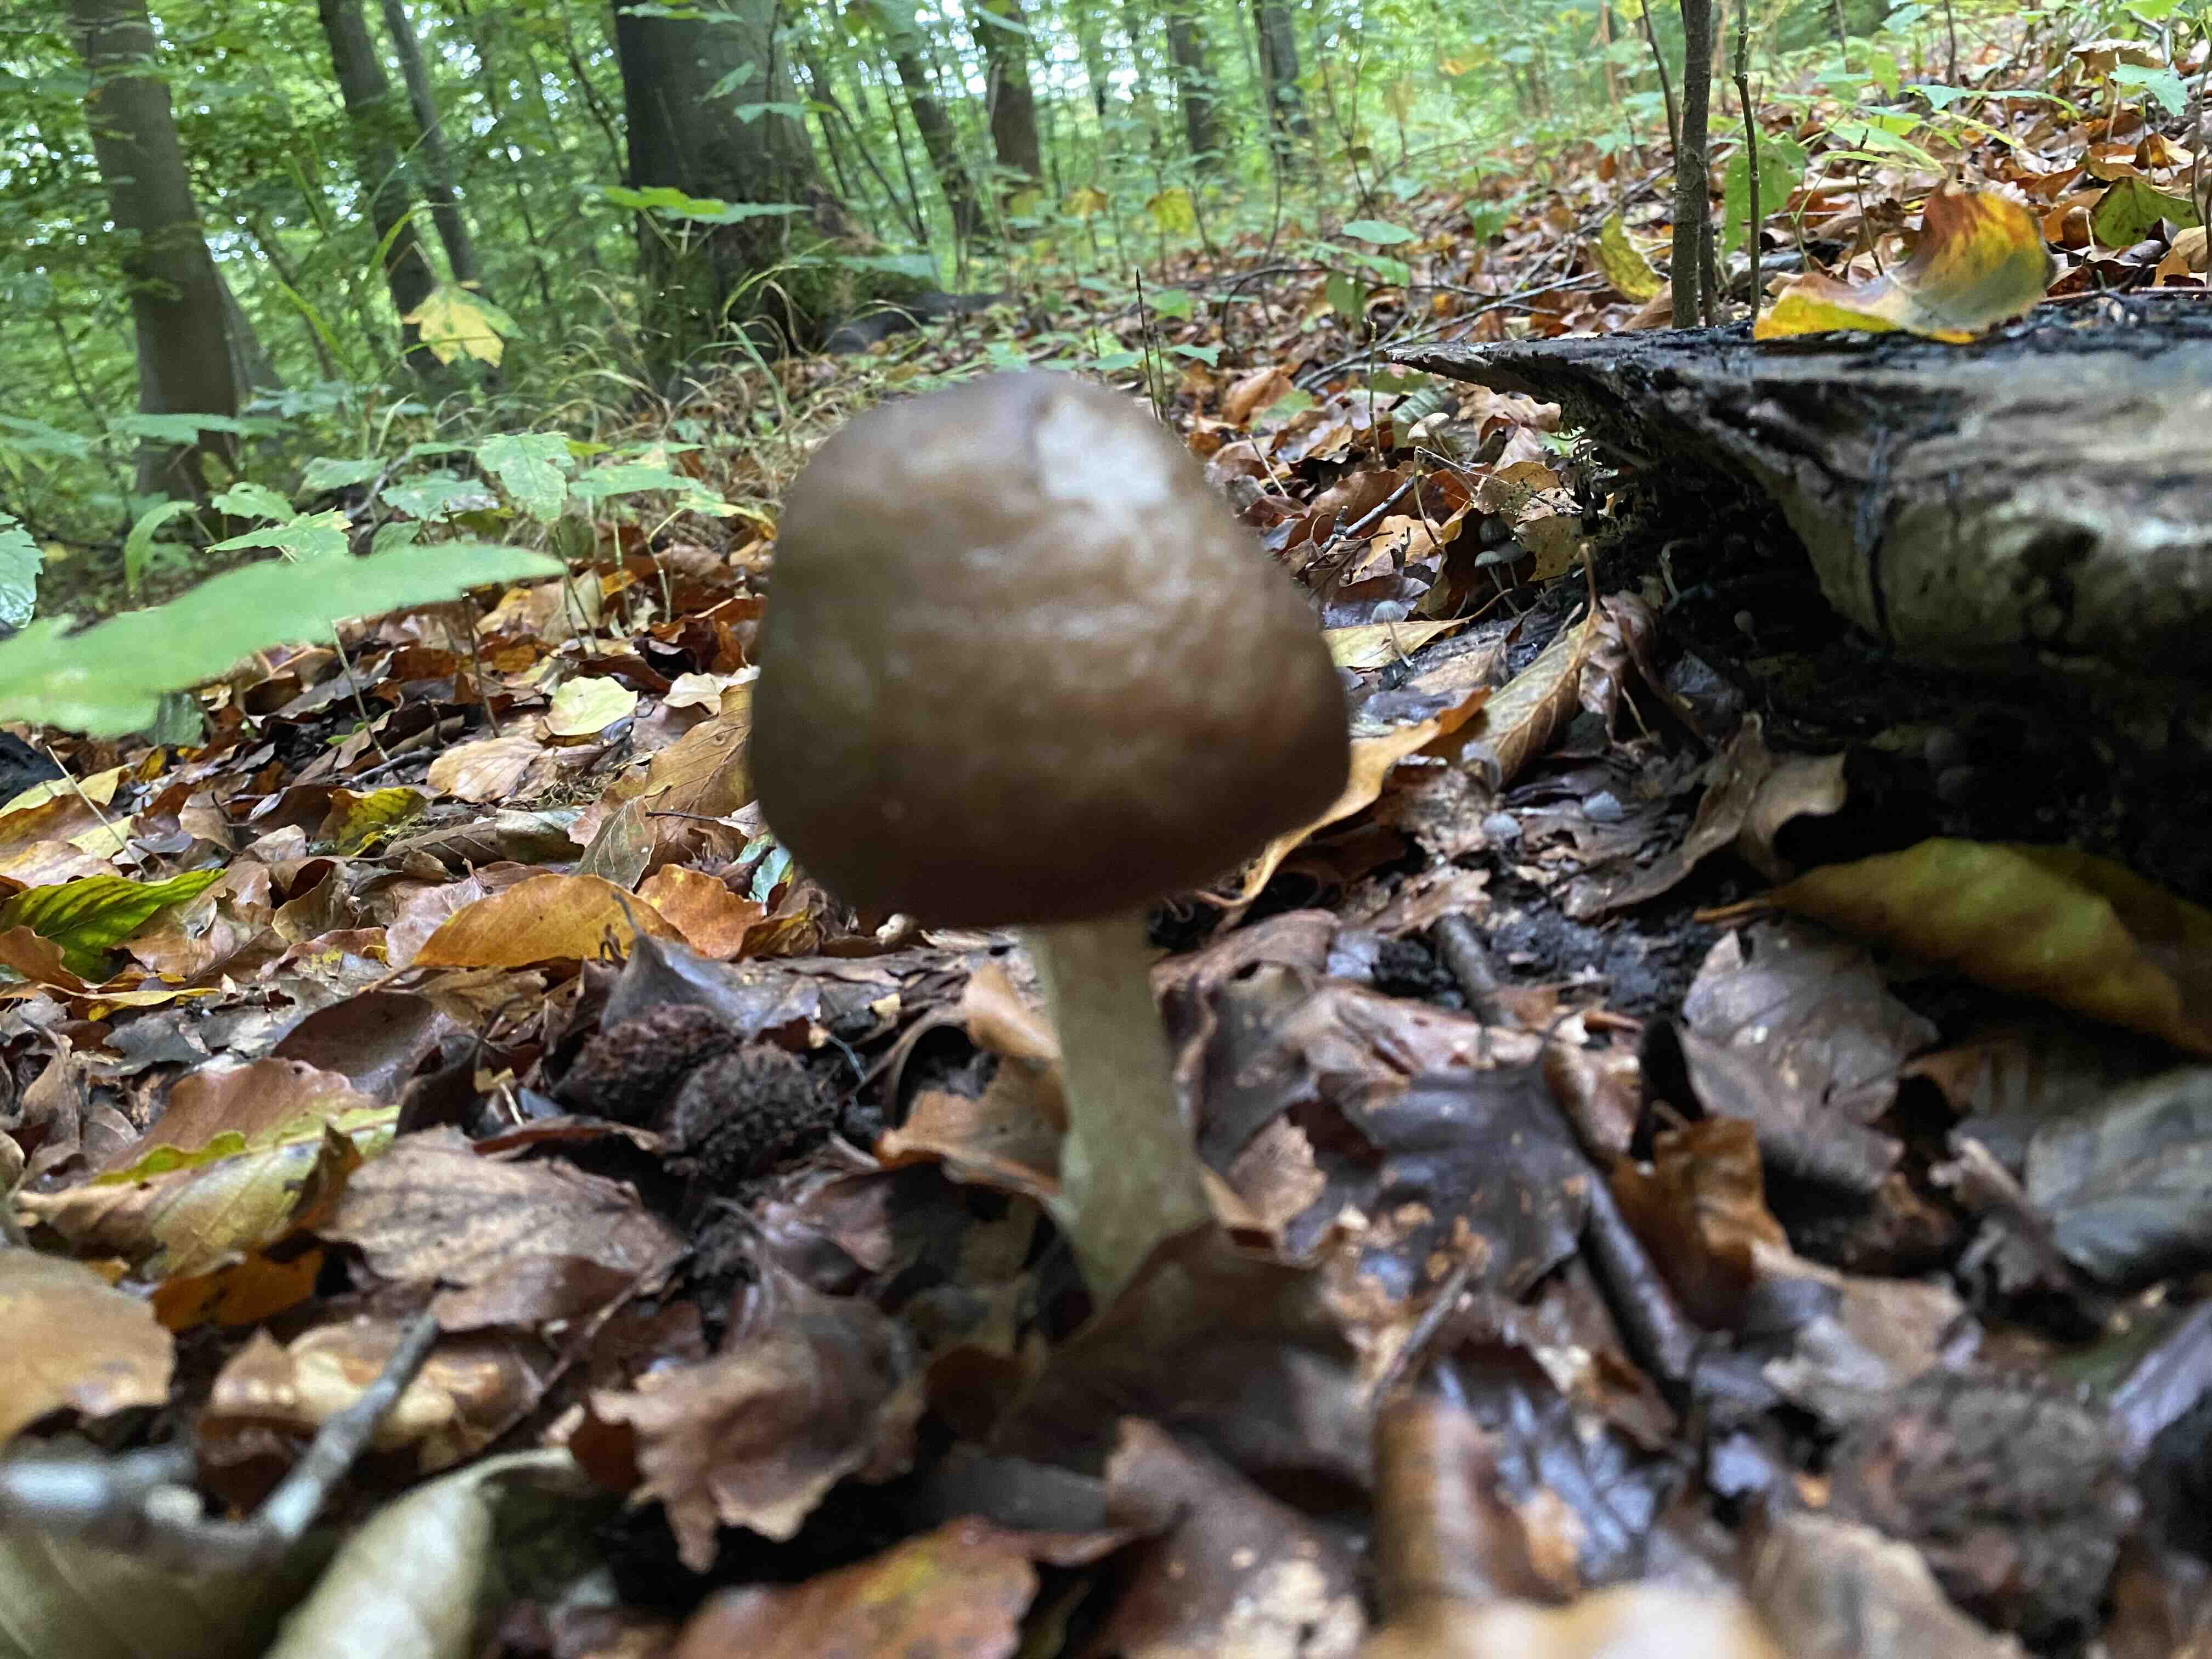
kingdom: Fungi
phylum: Basidiomycota
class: Agaricomycetes
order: Agaricales
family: Pluteaceae
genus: Pluteus
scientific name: Pluteus cervinus
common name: sodfarvet skærmhat
